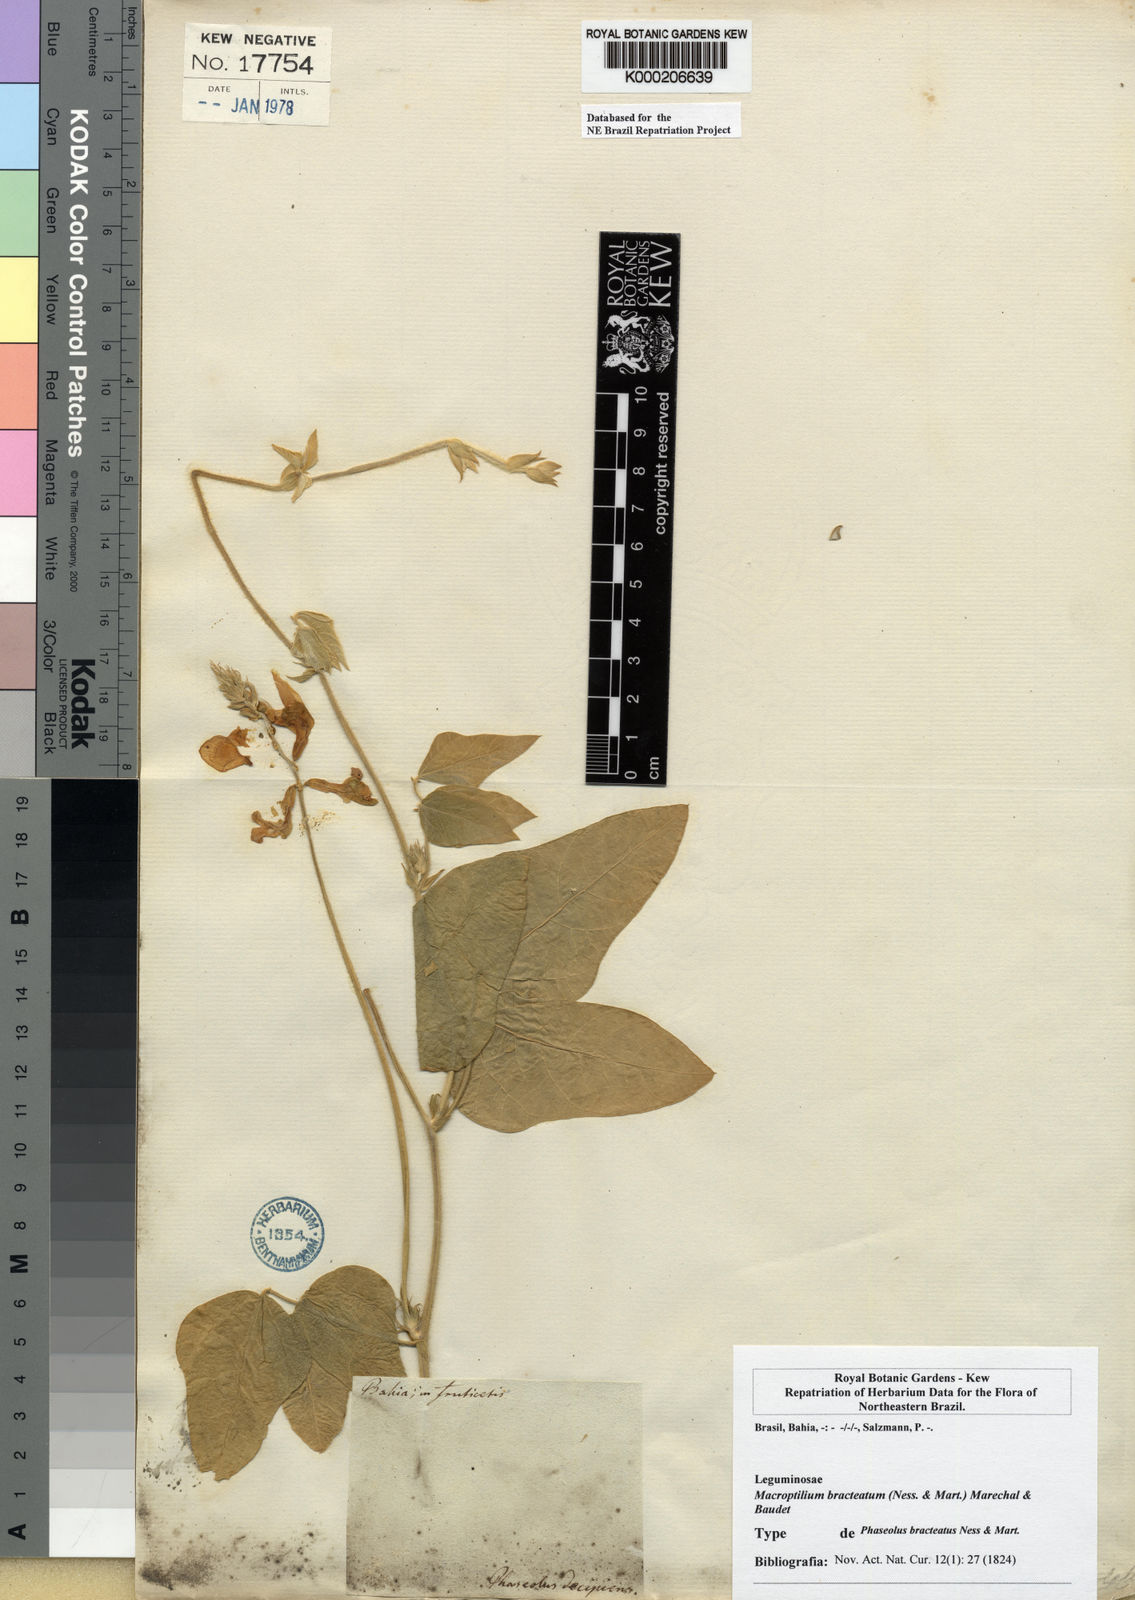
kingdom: Plantae
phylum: Tracheophyta
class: Magnoliopsida
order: Fabales
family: Fabaceae
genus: Macroptilium
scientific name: Macroptilium
